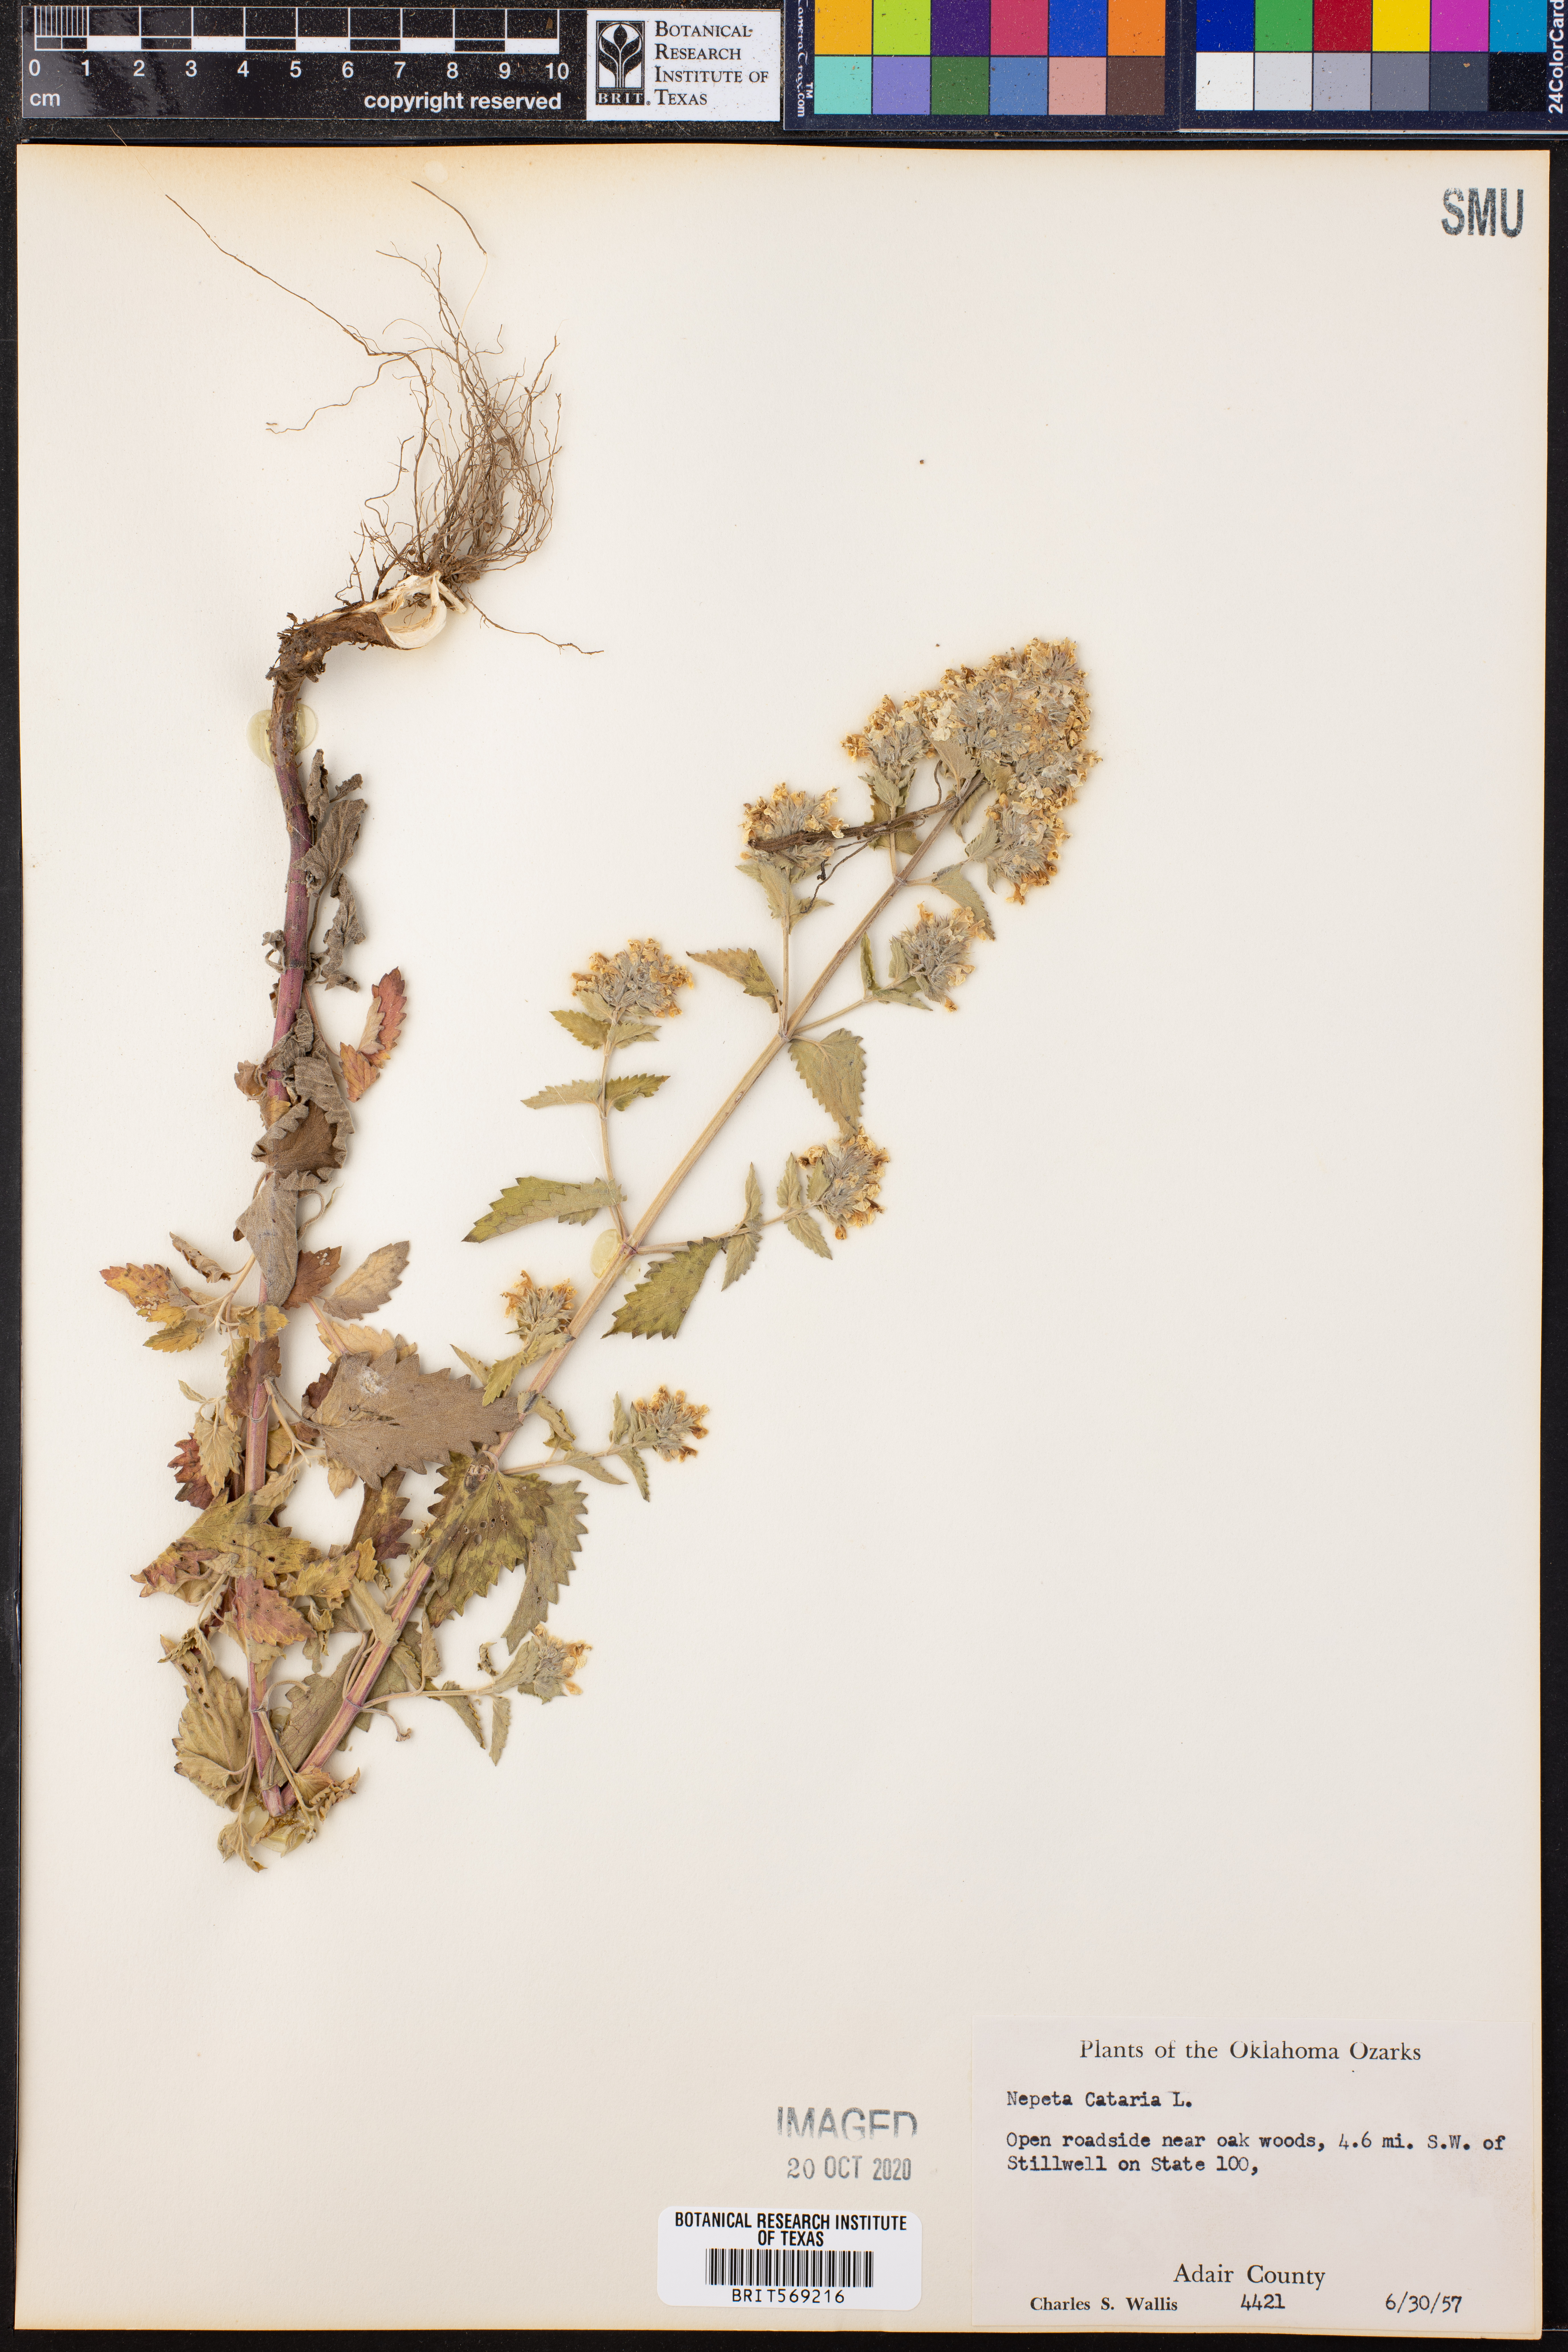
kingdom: Plantae
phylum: Tracheophyta
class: Magnoliopsida
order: Lamiales
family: Lamiaceae
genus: Nepeta
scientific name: Nepeta cataria
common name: Catnip
